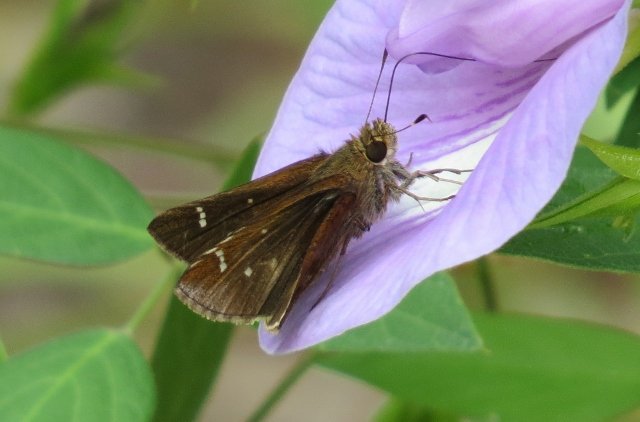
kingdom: Animalia
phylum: Arthropoda
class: Insecta
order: Lepidoptera
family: Hesperiidae
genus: Lerema
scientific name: Lerema accius
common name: Clouded Skipper
